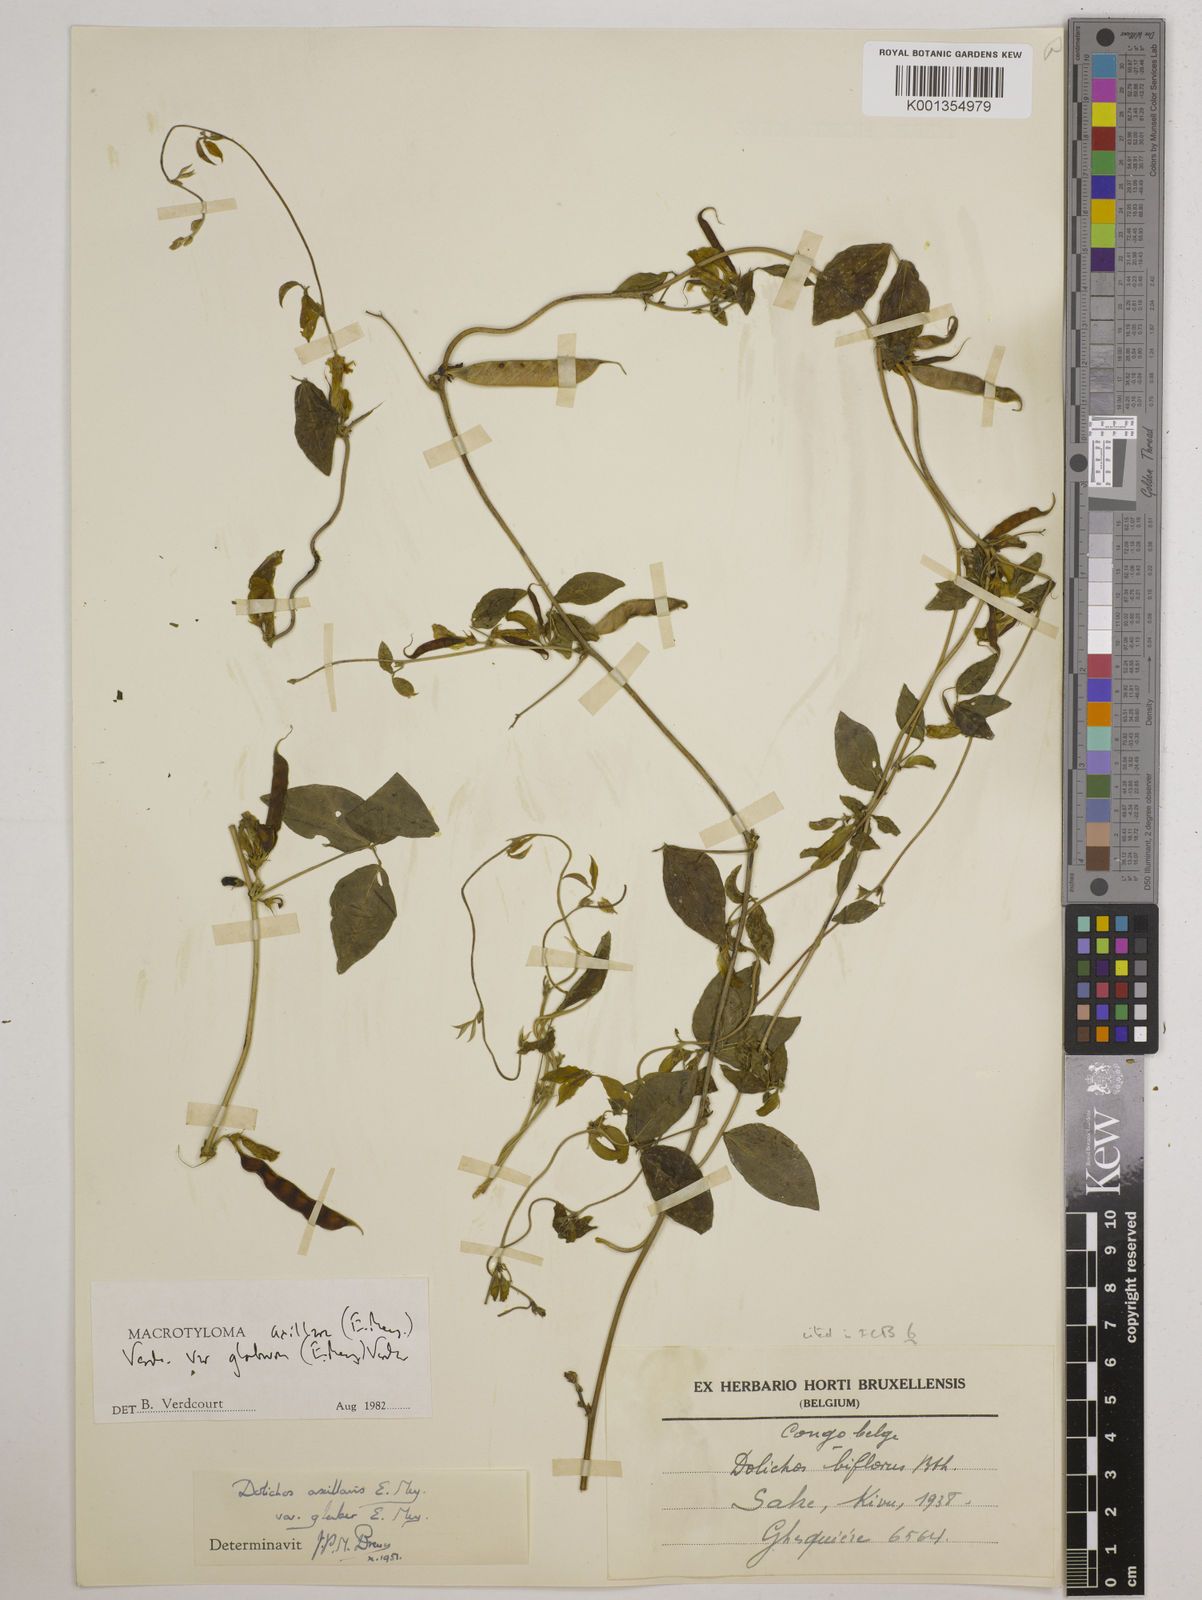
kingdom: Plantae
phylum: Tracheophyta
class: Magnoliopsida
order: Fabales
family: Fabaceae
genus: Macrotyloma
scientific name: Macrotyloma
